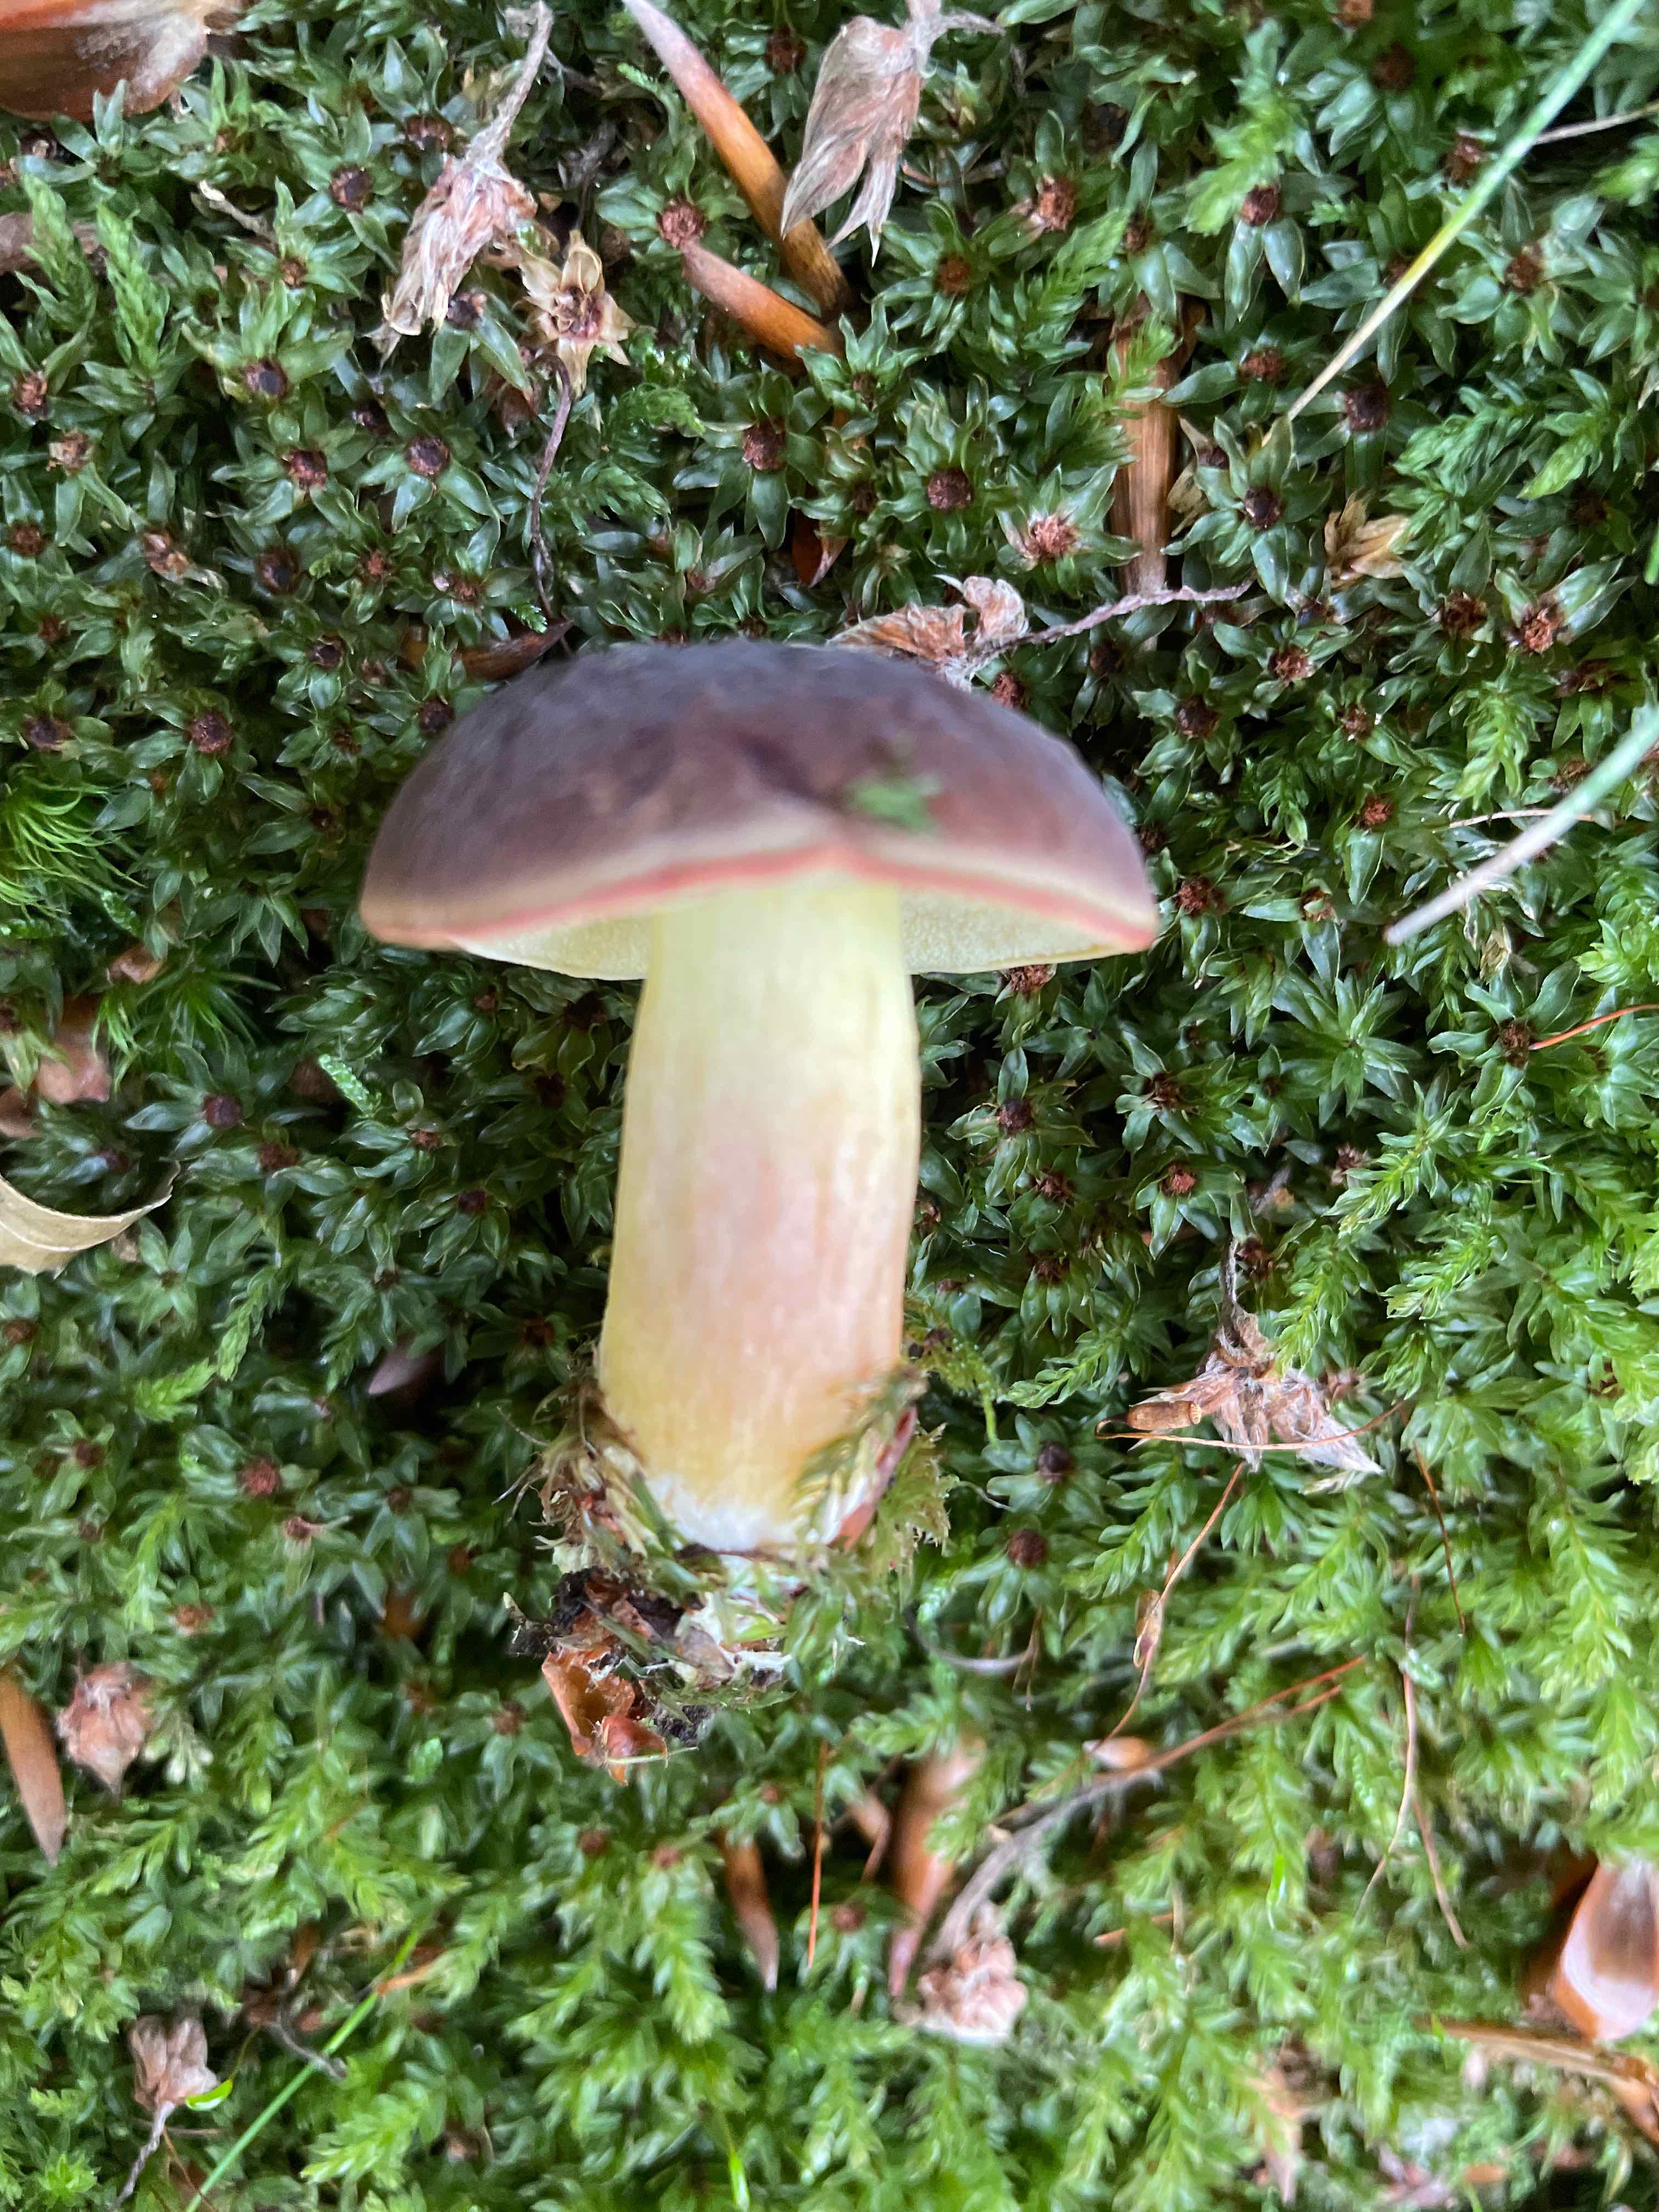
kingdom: Fungi
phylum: Basidiomycota
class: Agaricomycetes
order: Boletales
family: Boletaceae
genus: Xerocomellus
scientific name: Xerocomellus pruinatus
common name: dugget rørhat
